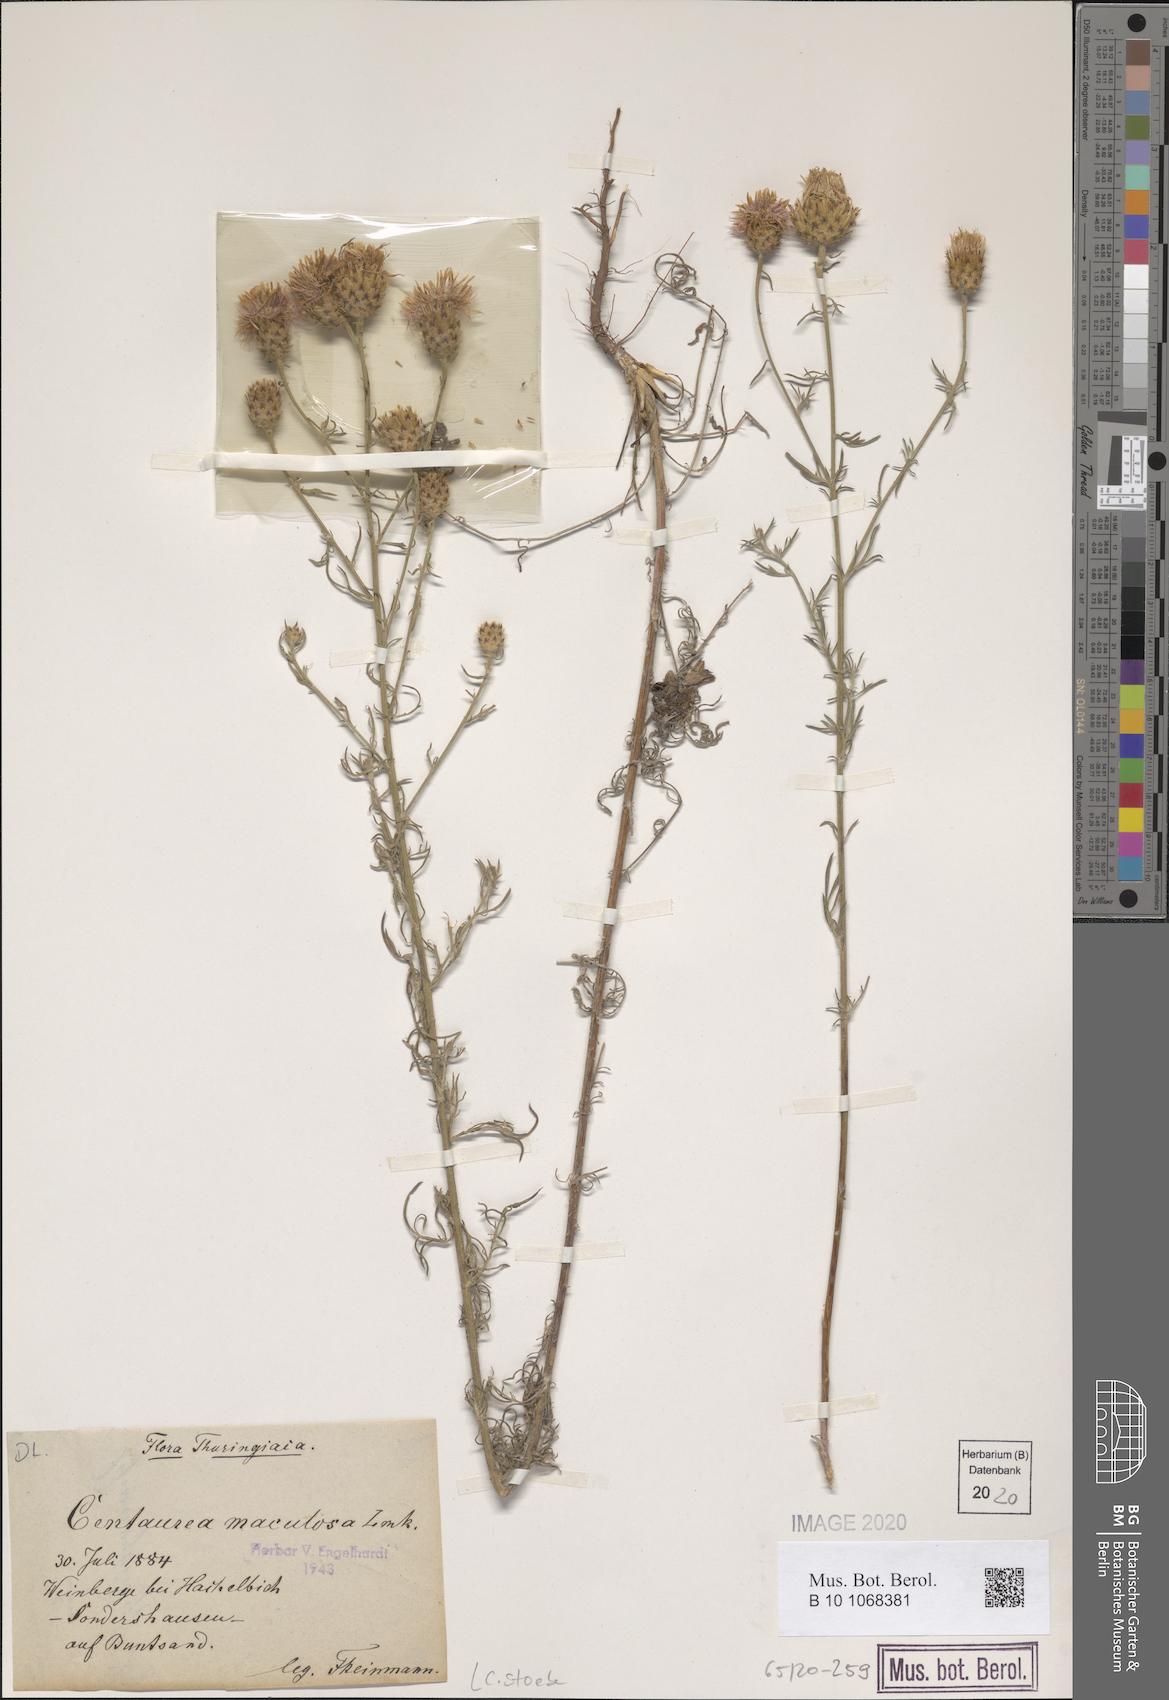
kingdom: Plantae
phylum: Tracheophyta
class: Magnoliopsida
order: Asterales
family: Asteraceae
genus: Centaurea
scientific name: Centaurea stoebe
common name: Spotted knapweed
